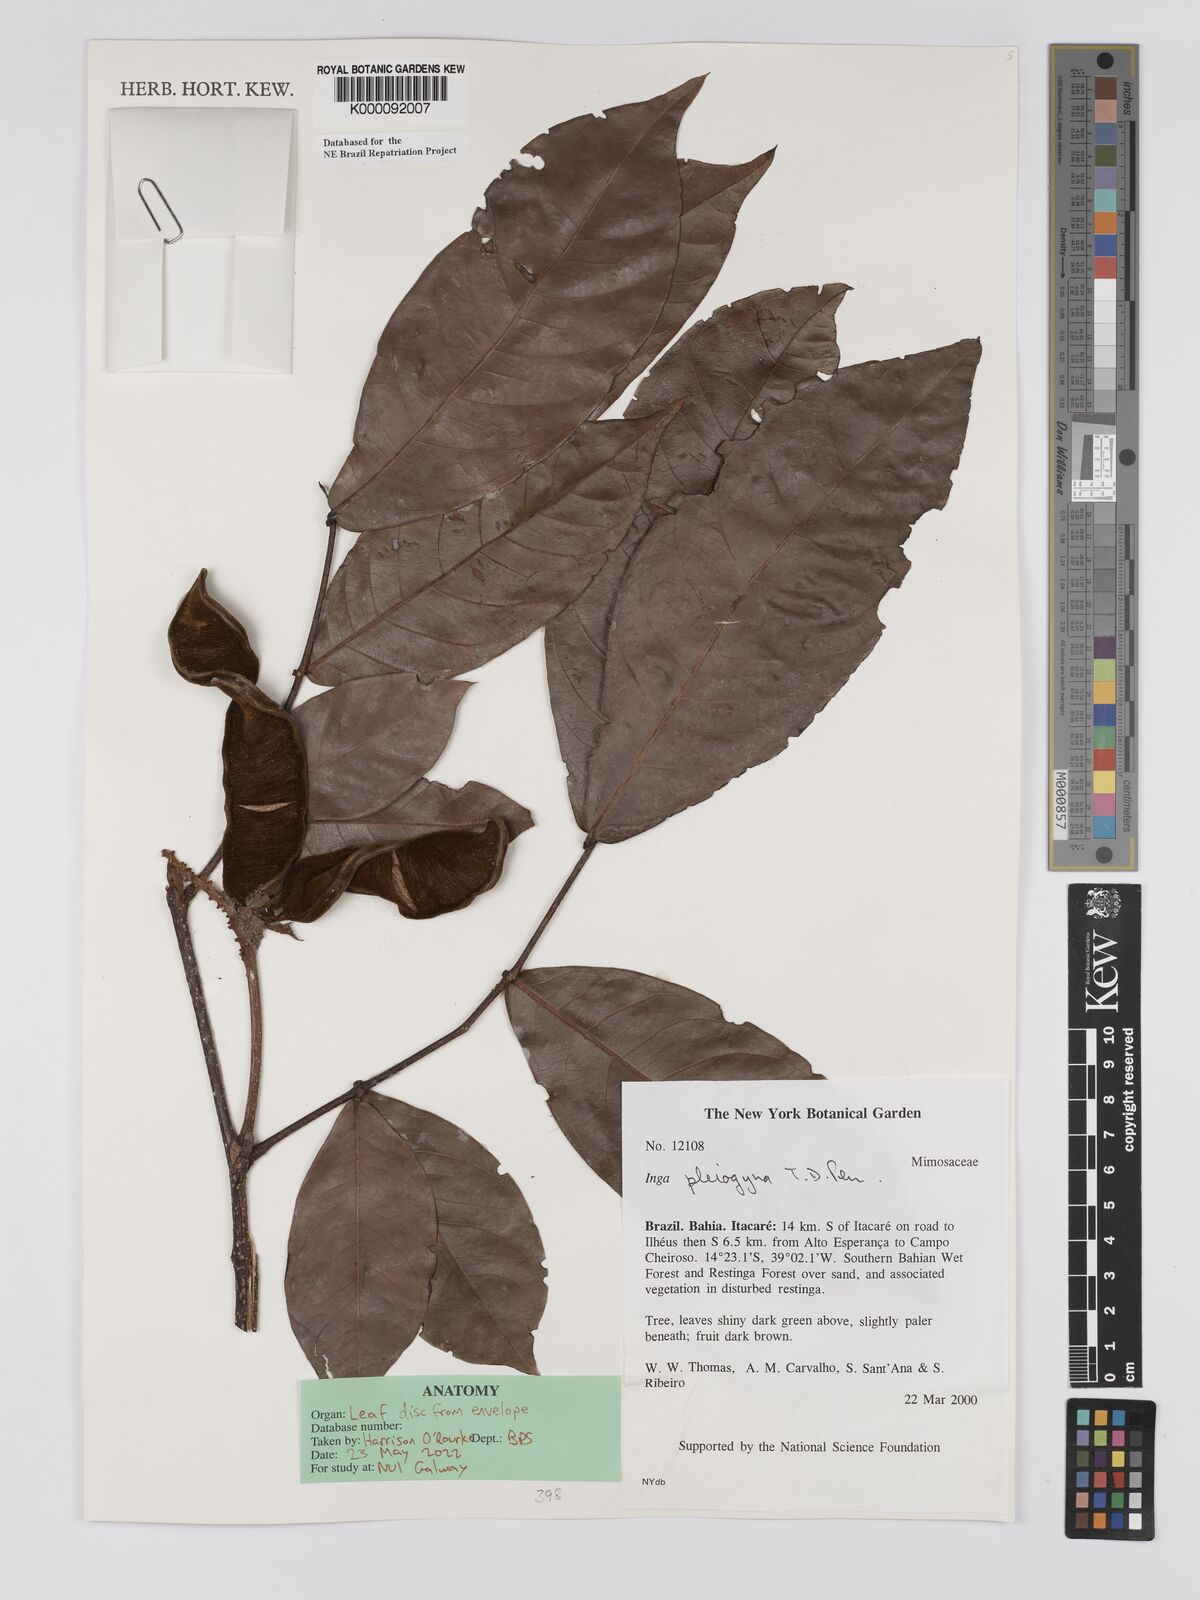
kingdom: Plantae
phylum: Tracheophyta
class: Magnoliopsida
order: Fabales
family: Fabaceae
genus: Inga
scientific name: Inga pleiogyna
